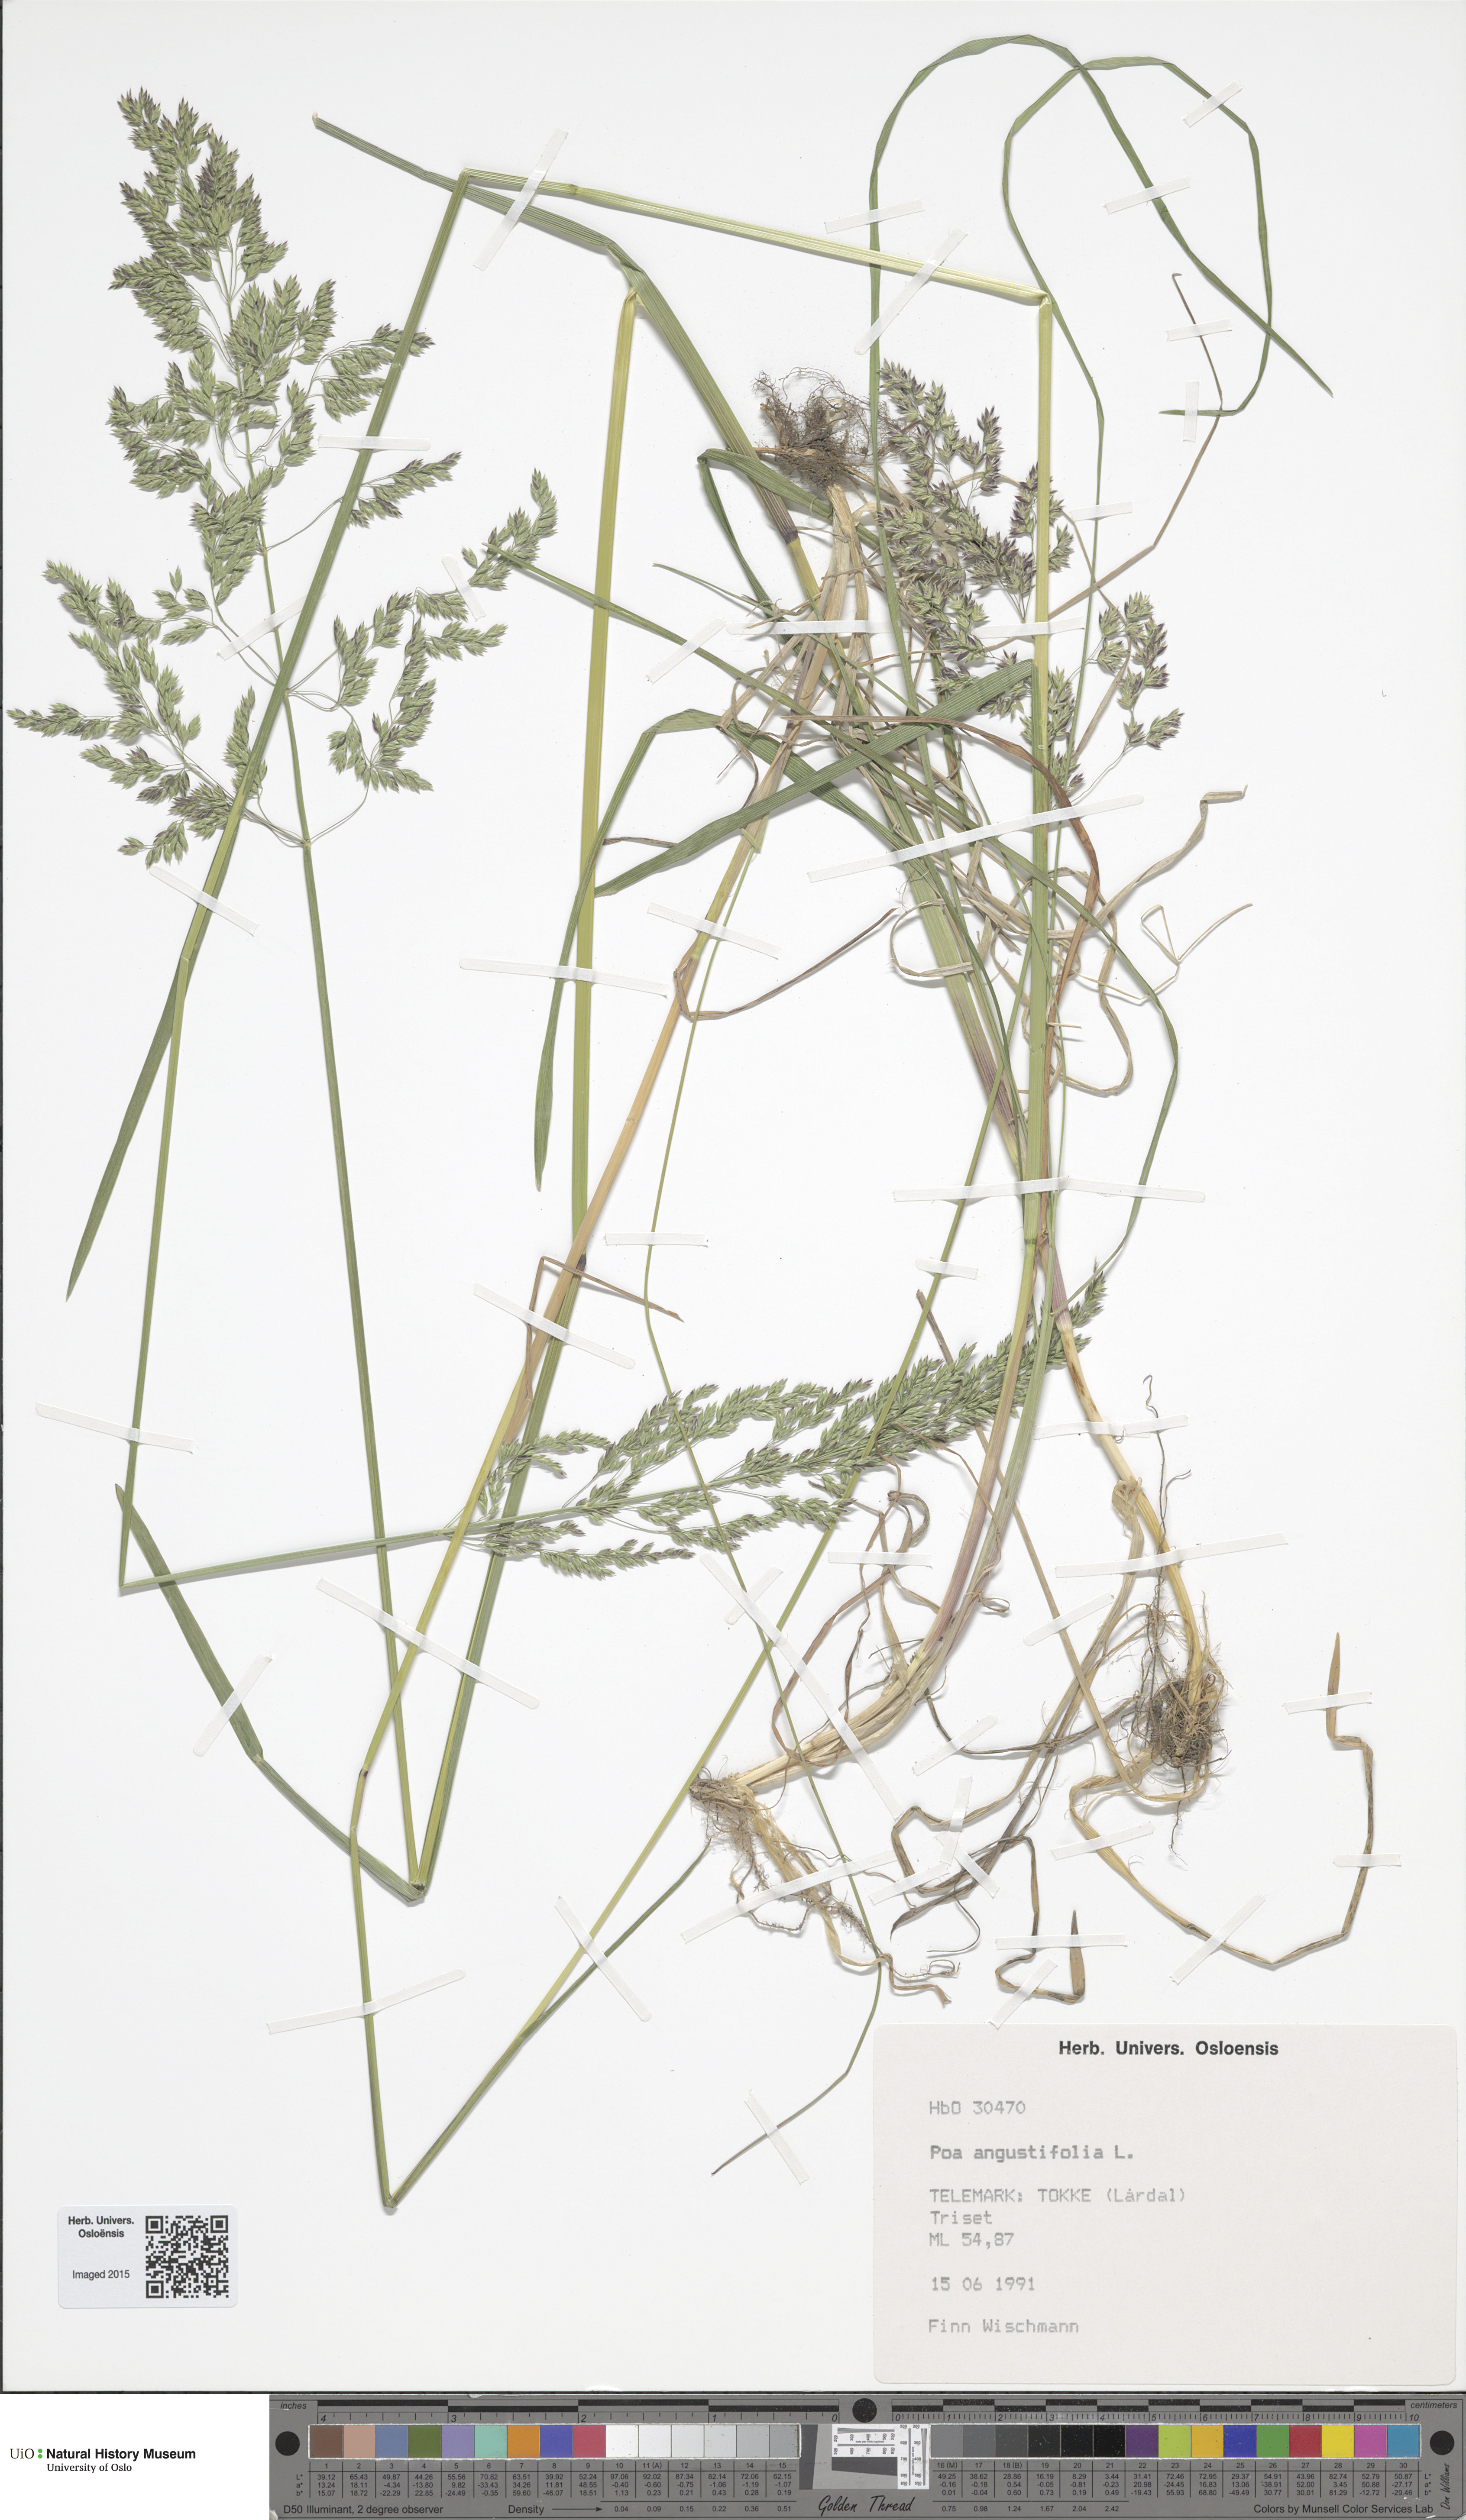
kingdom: Plantae
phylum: Tracheophyta
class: Liliopsida
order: Poales
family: Poaceae
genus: Poa
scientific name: Poa angustifolia
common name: Narrow-leaved meadow-grass
